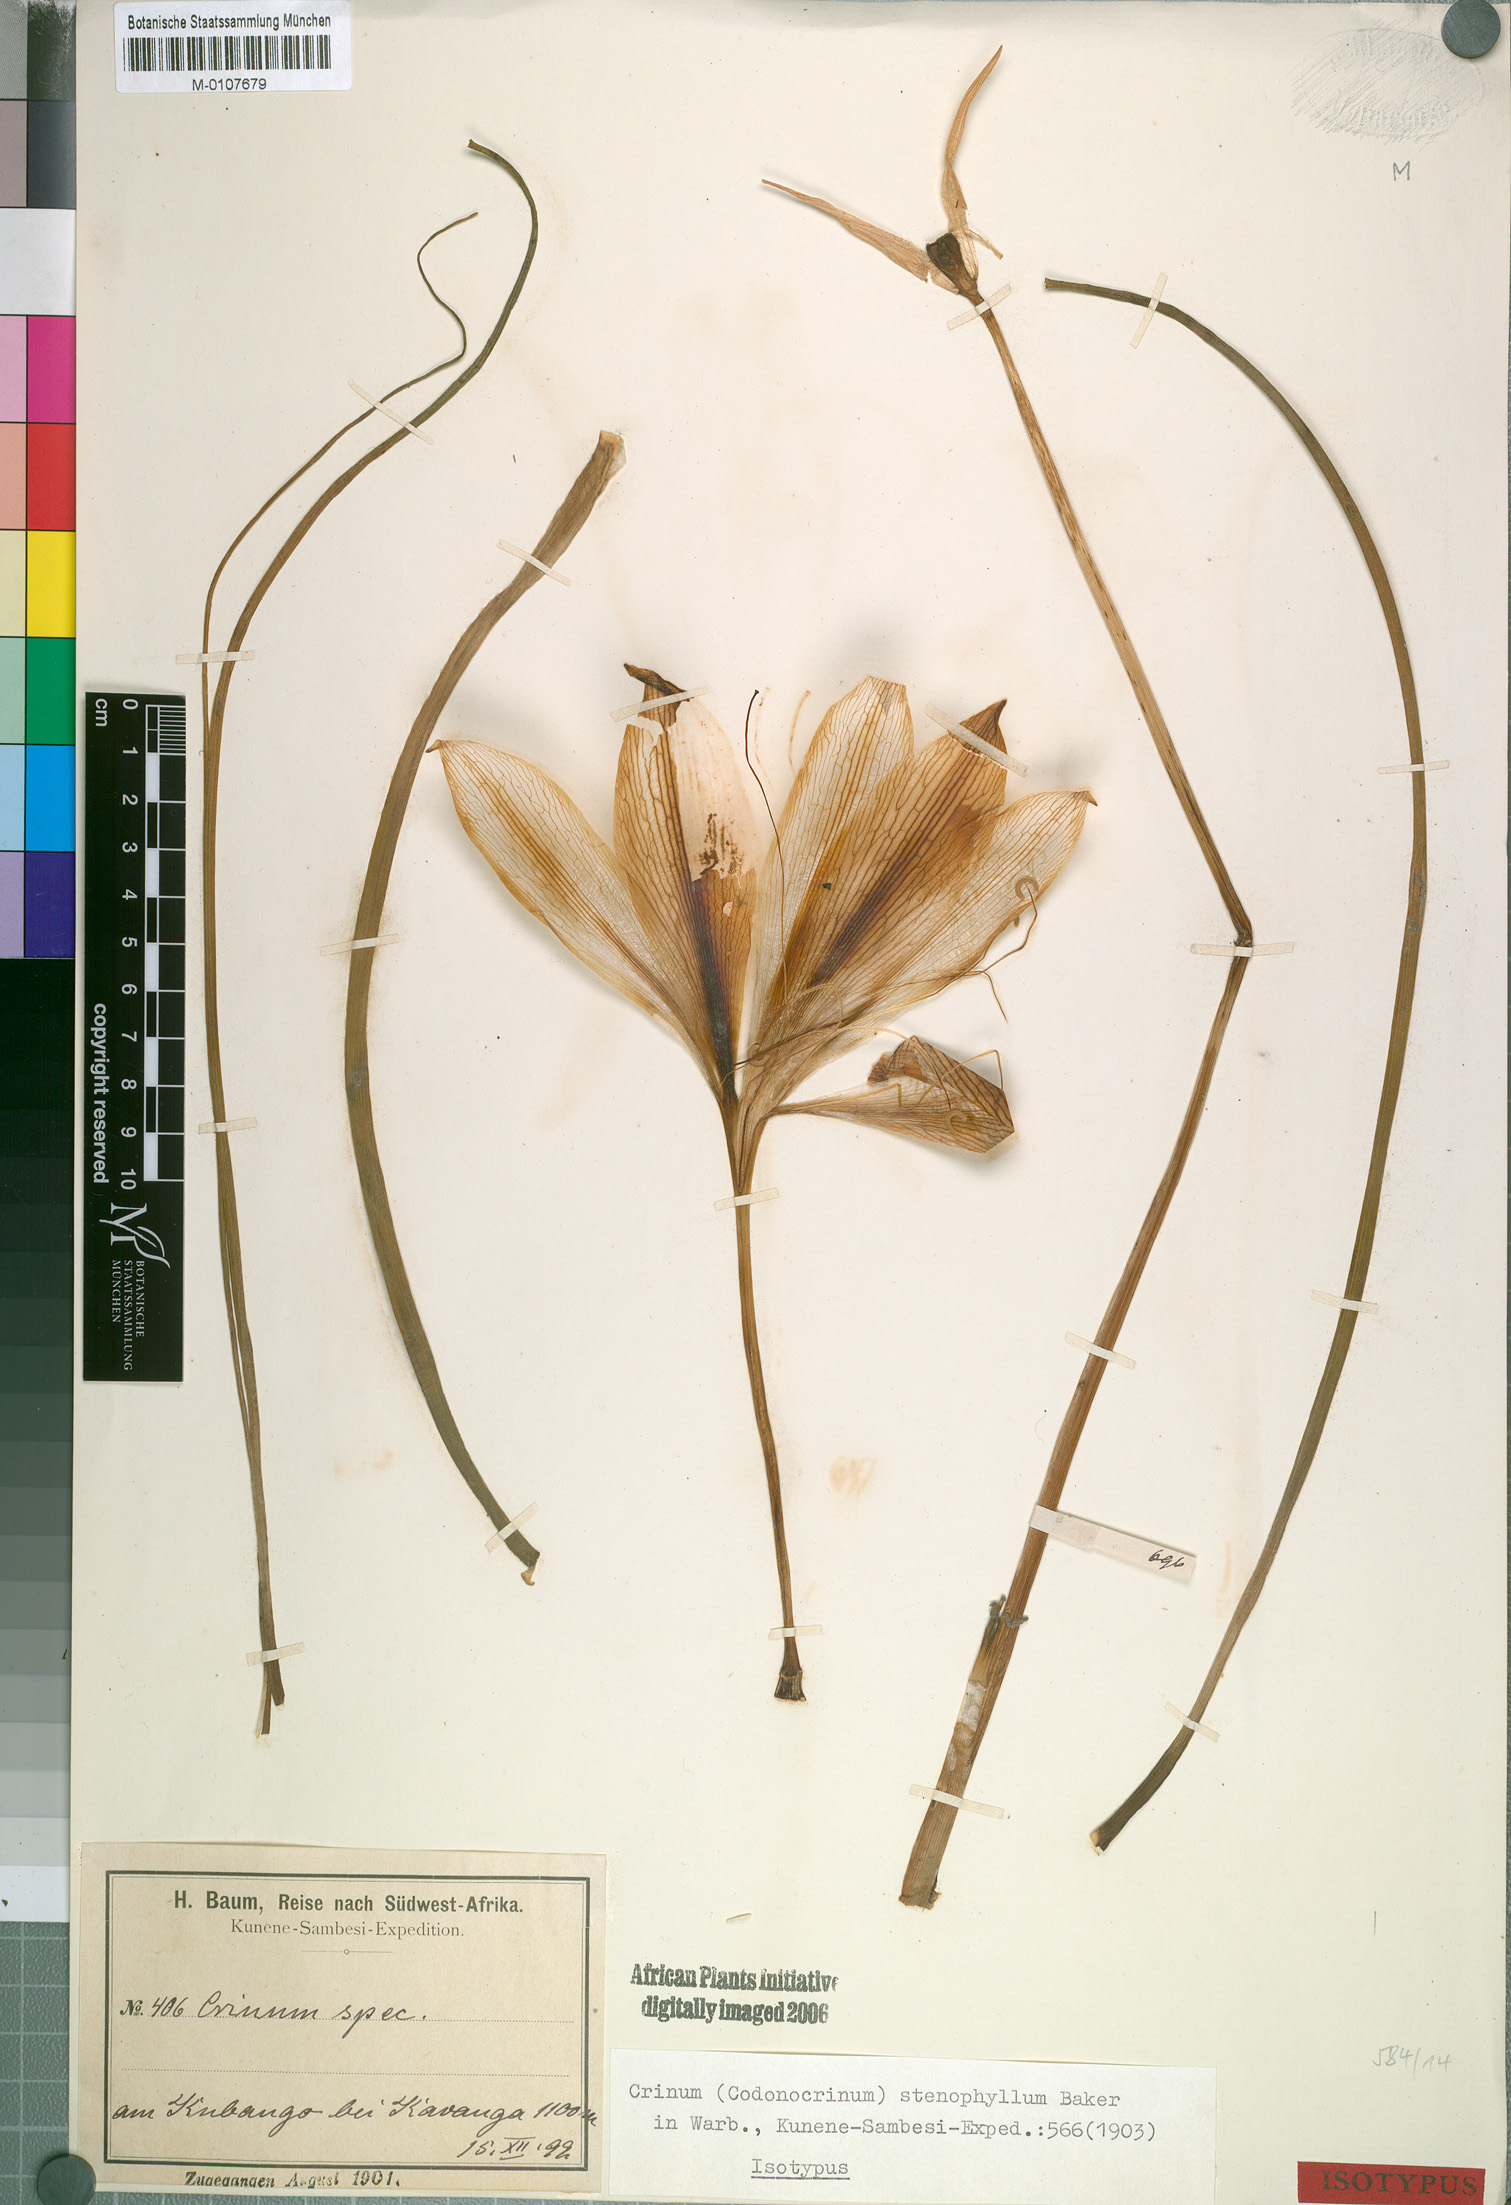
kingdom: Plantae
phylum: Tracheophyta
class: Liliopsida
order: Asparagales
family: Amaryllidaceae
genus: Crinum
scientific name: Crinum stenophyllum
